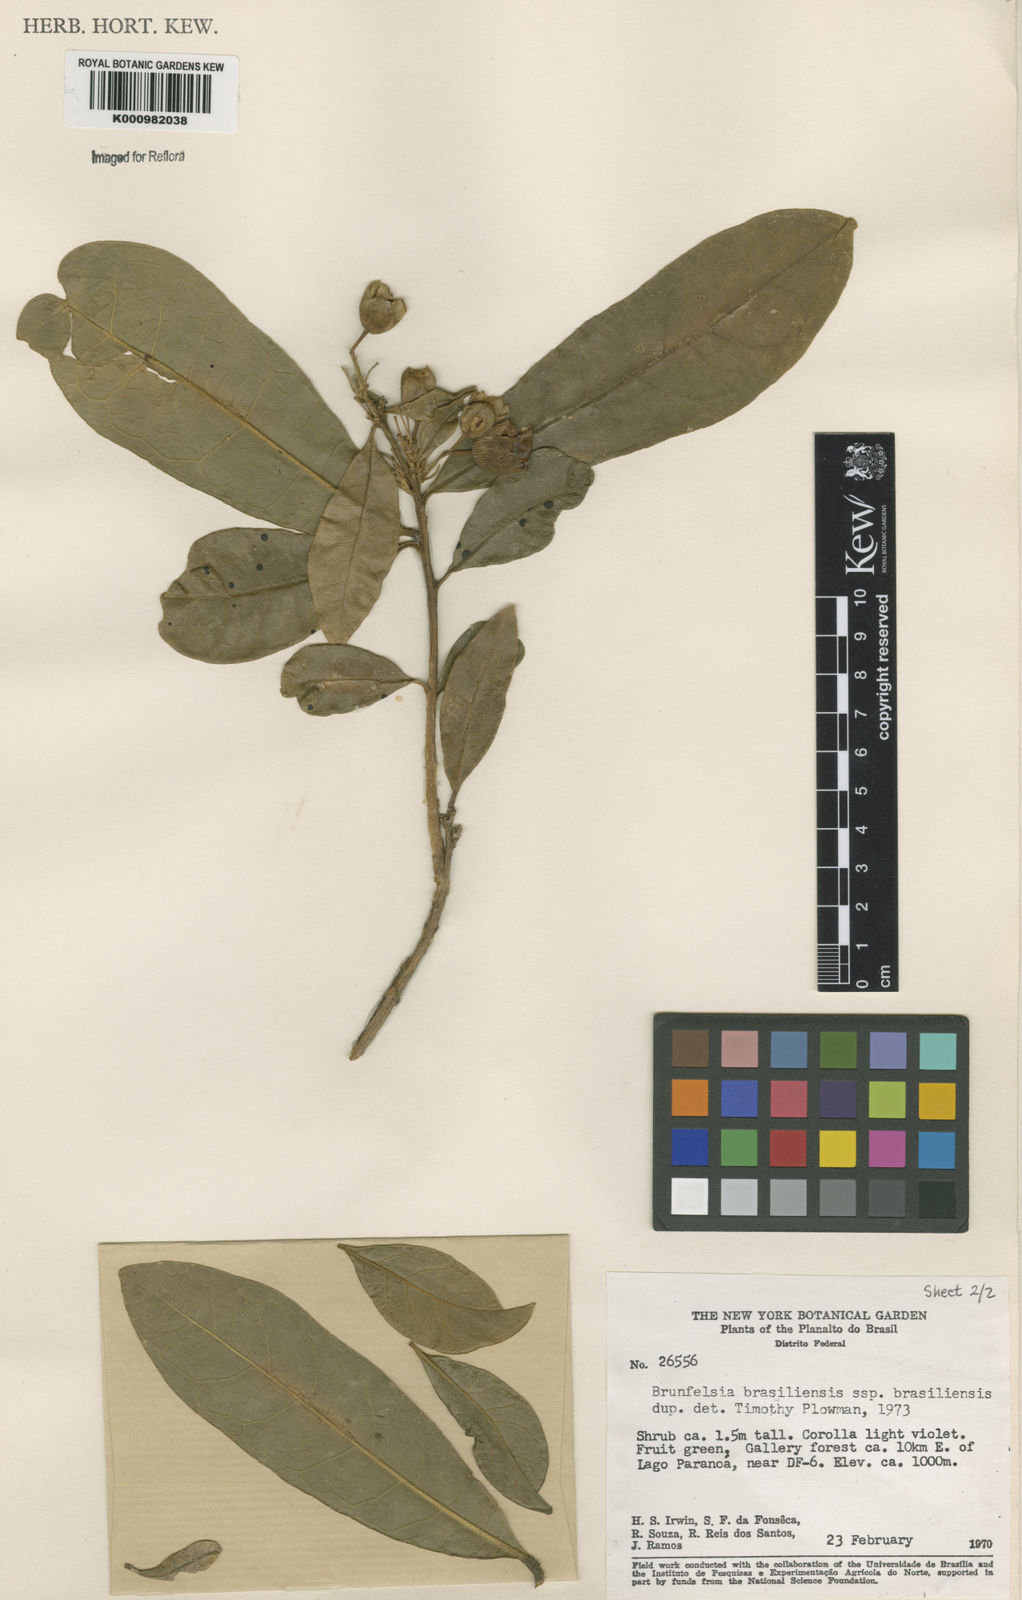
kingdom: Plantae
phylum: Tracheophyta
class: Magnoliopsida
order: Solanales
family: Solanaceae
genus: Brunfelsia
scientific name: Brunfelsia brasiliensis
